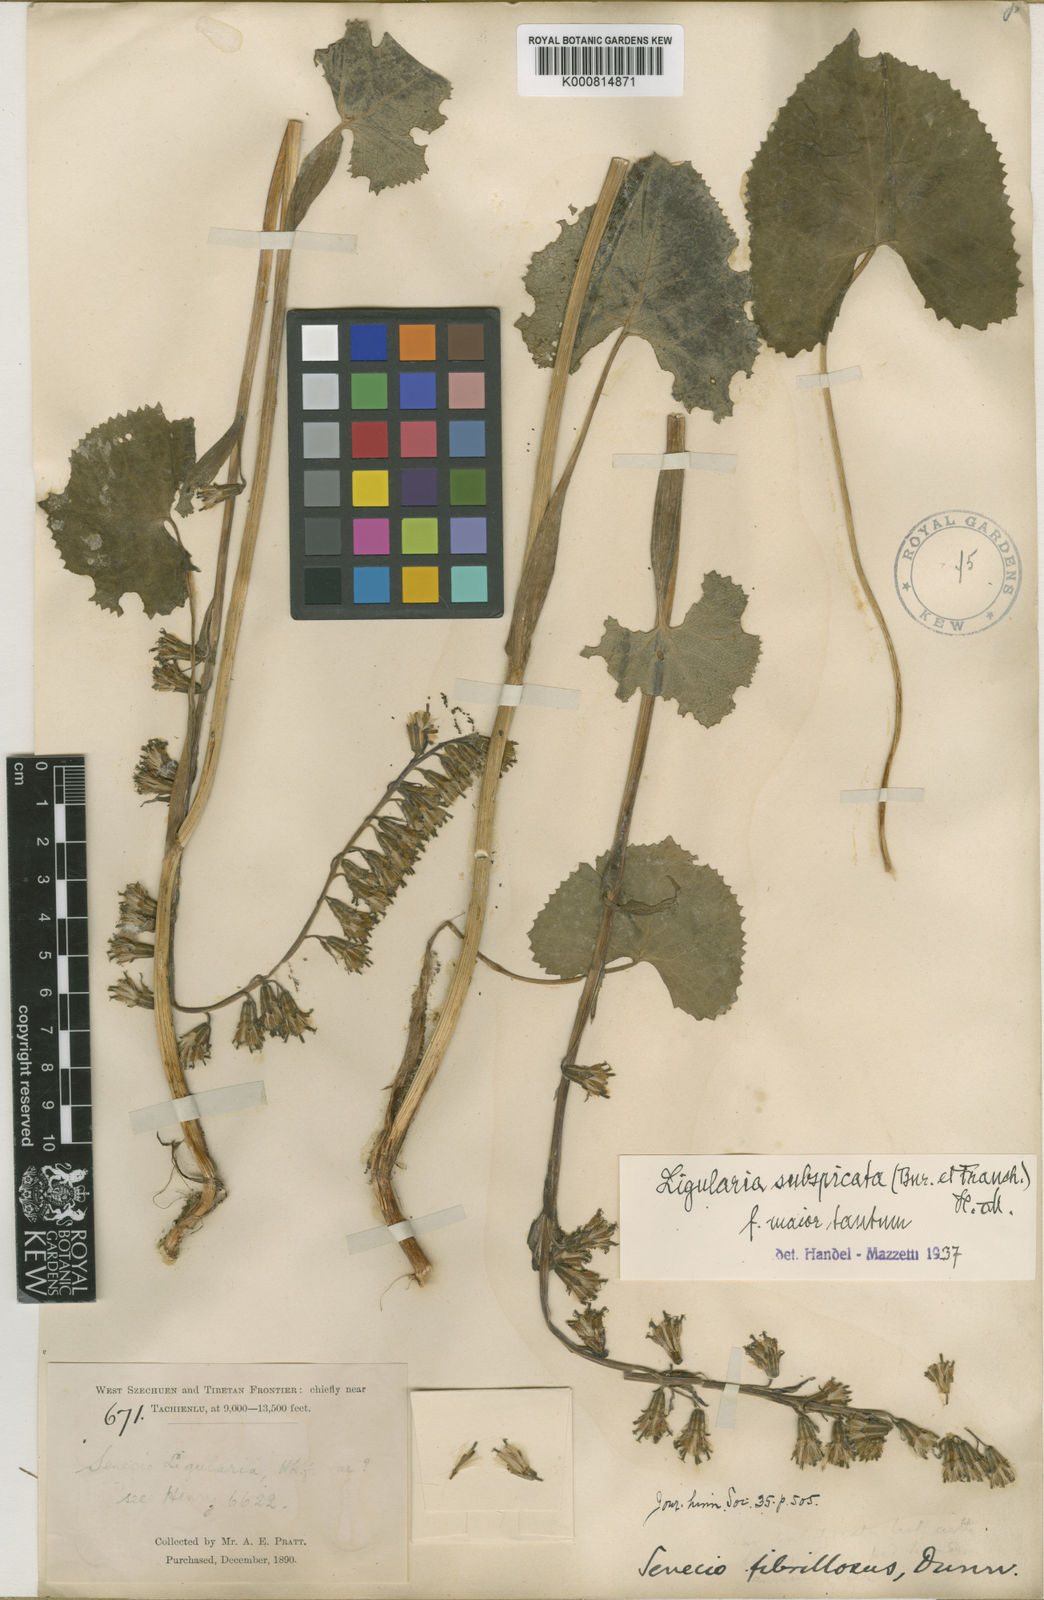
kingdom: Plantae
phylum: Tracheophyta
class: Magnoliopsida
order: Asterales
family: Asteraceae
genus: Ligularia
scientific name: Ligularia subspicata
